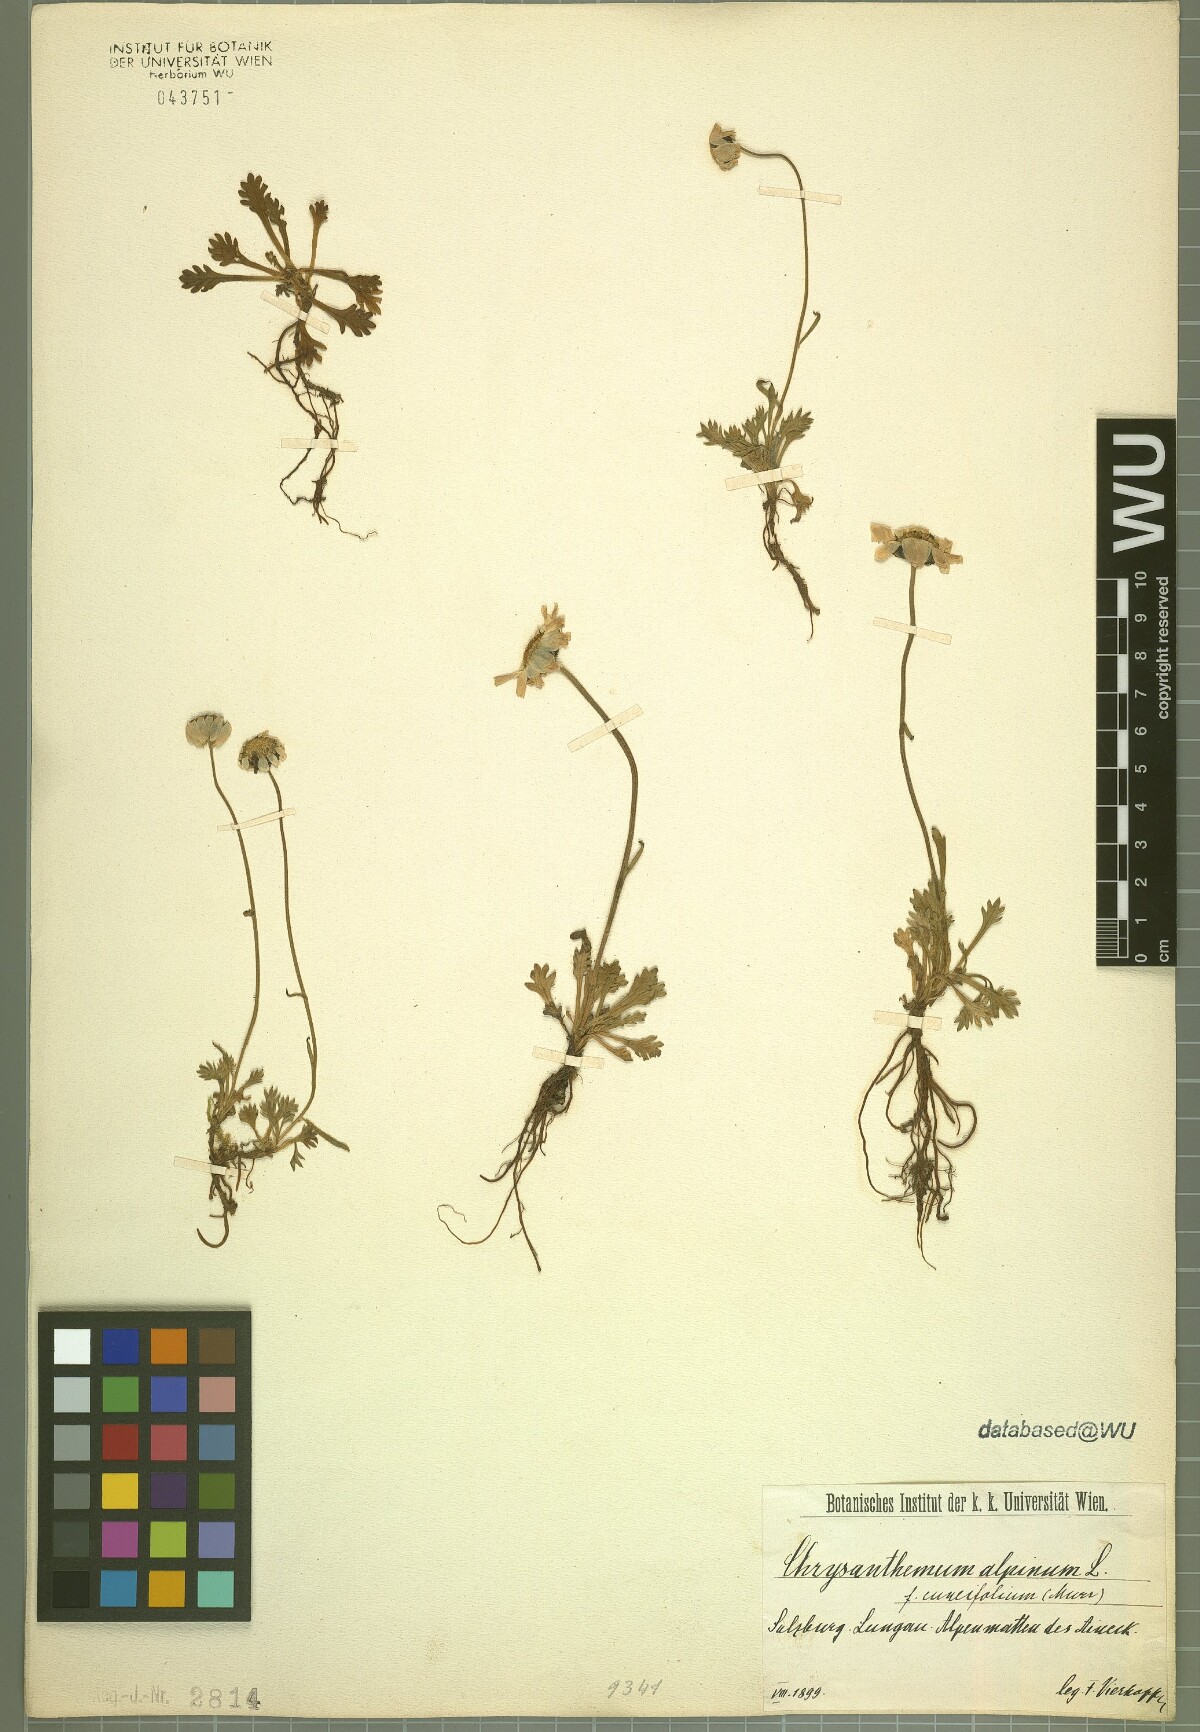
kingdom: Plantae
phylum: Tracheophyta
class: Magnoliopsida
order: Asterales
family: Asteraceae
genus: Leucanthemopsis
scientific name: Leucanthemopsis alpina
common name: Alpine moon daisy
